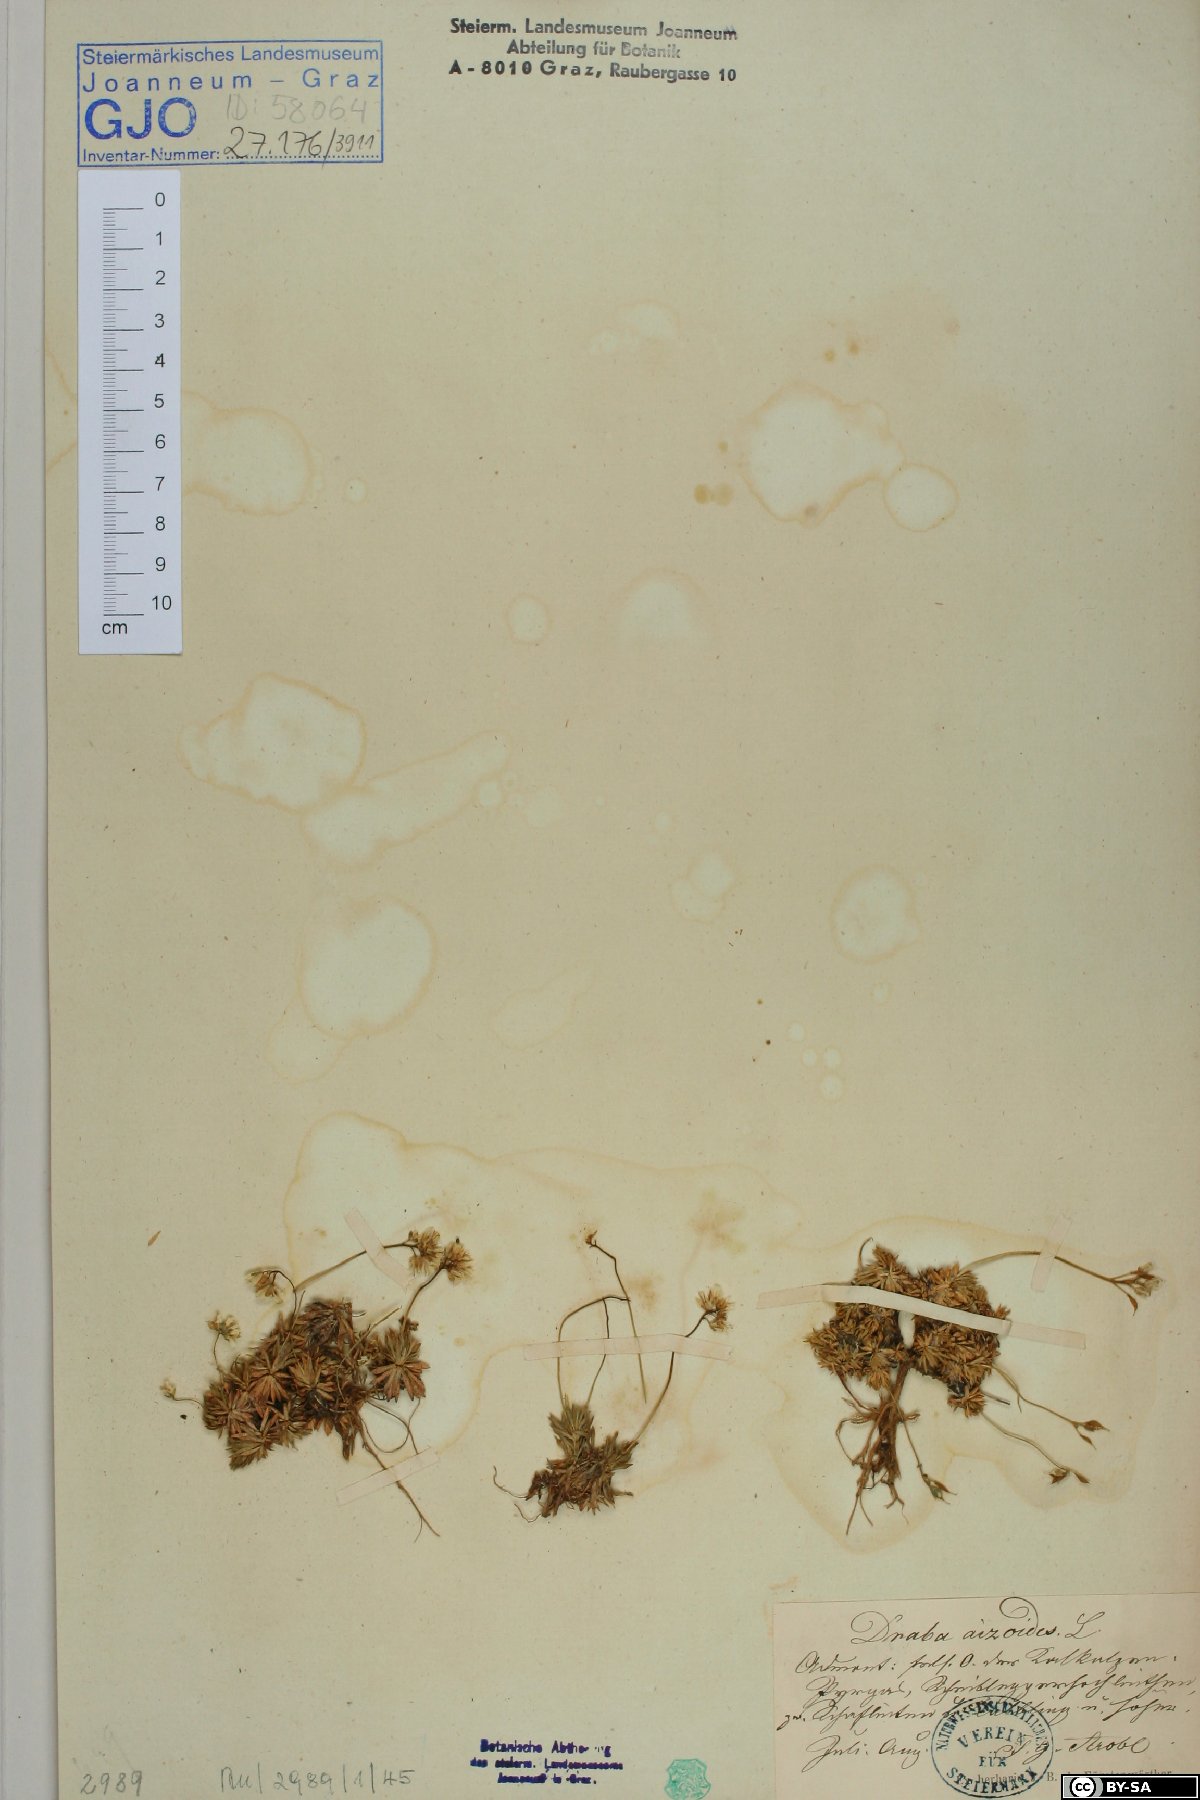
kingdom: Plantae
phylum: Tracheophyta
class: Magnoliopsida
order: Brassicales
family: Brassicaceae
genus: Draba
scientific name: Draba aizoides
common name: Yellow whitlowgrass
